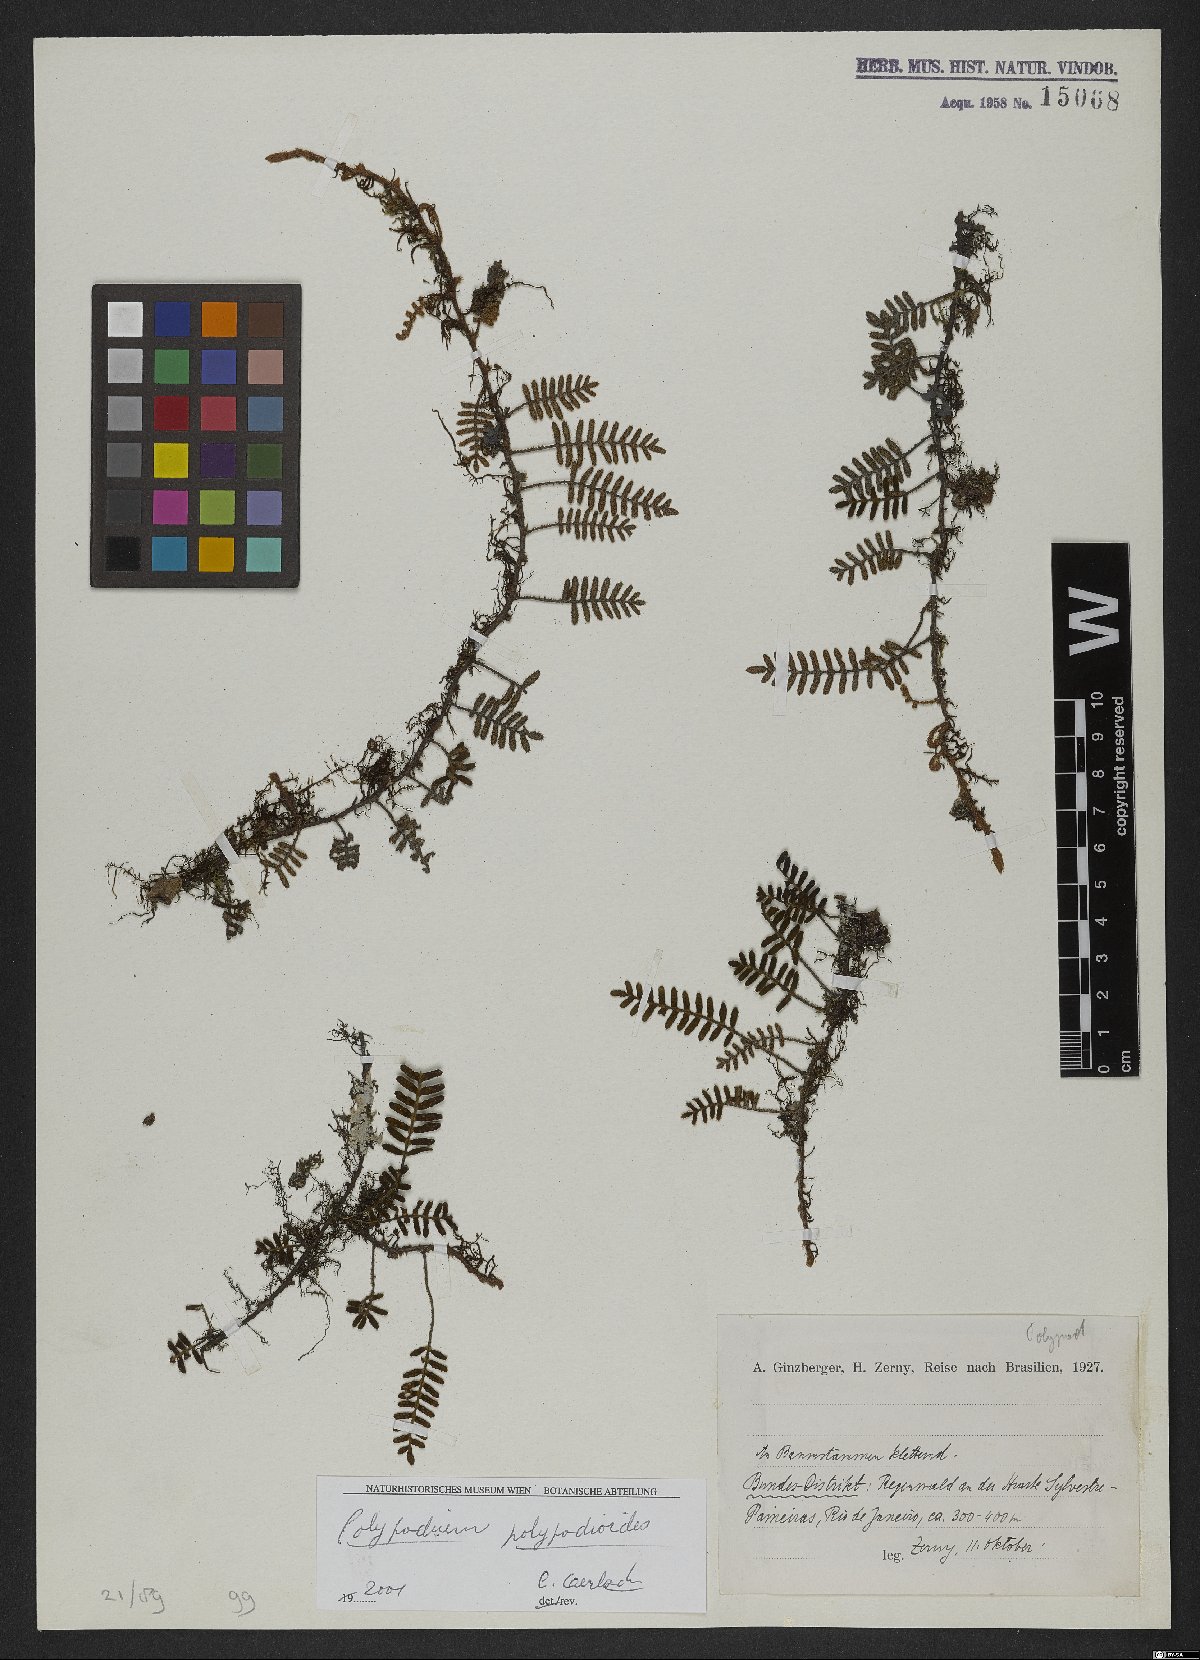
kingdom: Plantae
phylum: Tracheophyta
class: Polypodiopsida
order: Polypodiales
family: Polypodiaceae
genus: Pleopeltis
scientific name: Pleopeltis polypodioides
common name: Resurrection fern
